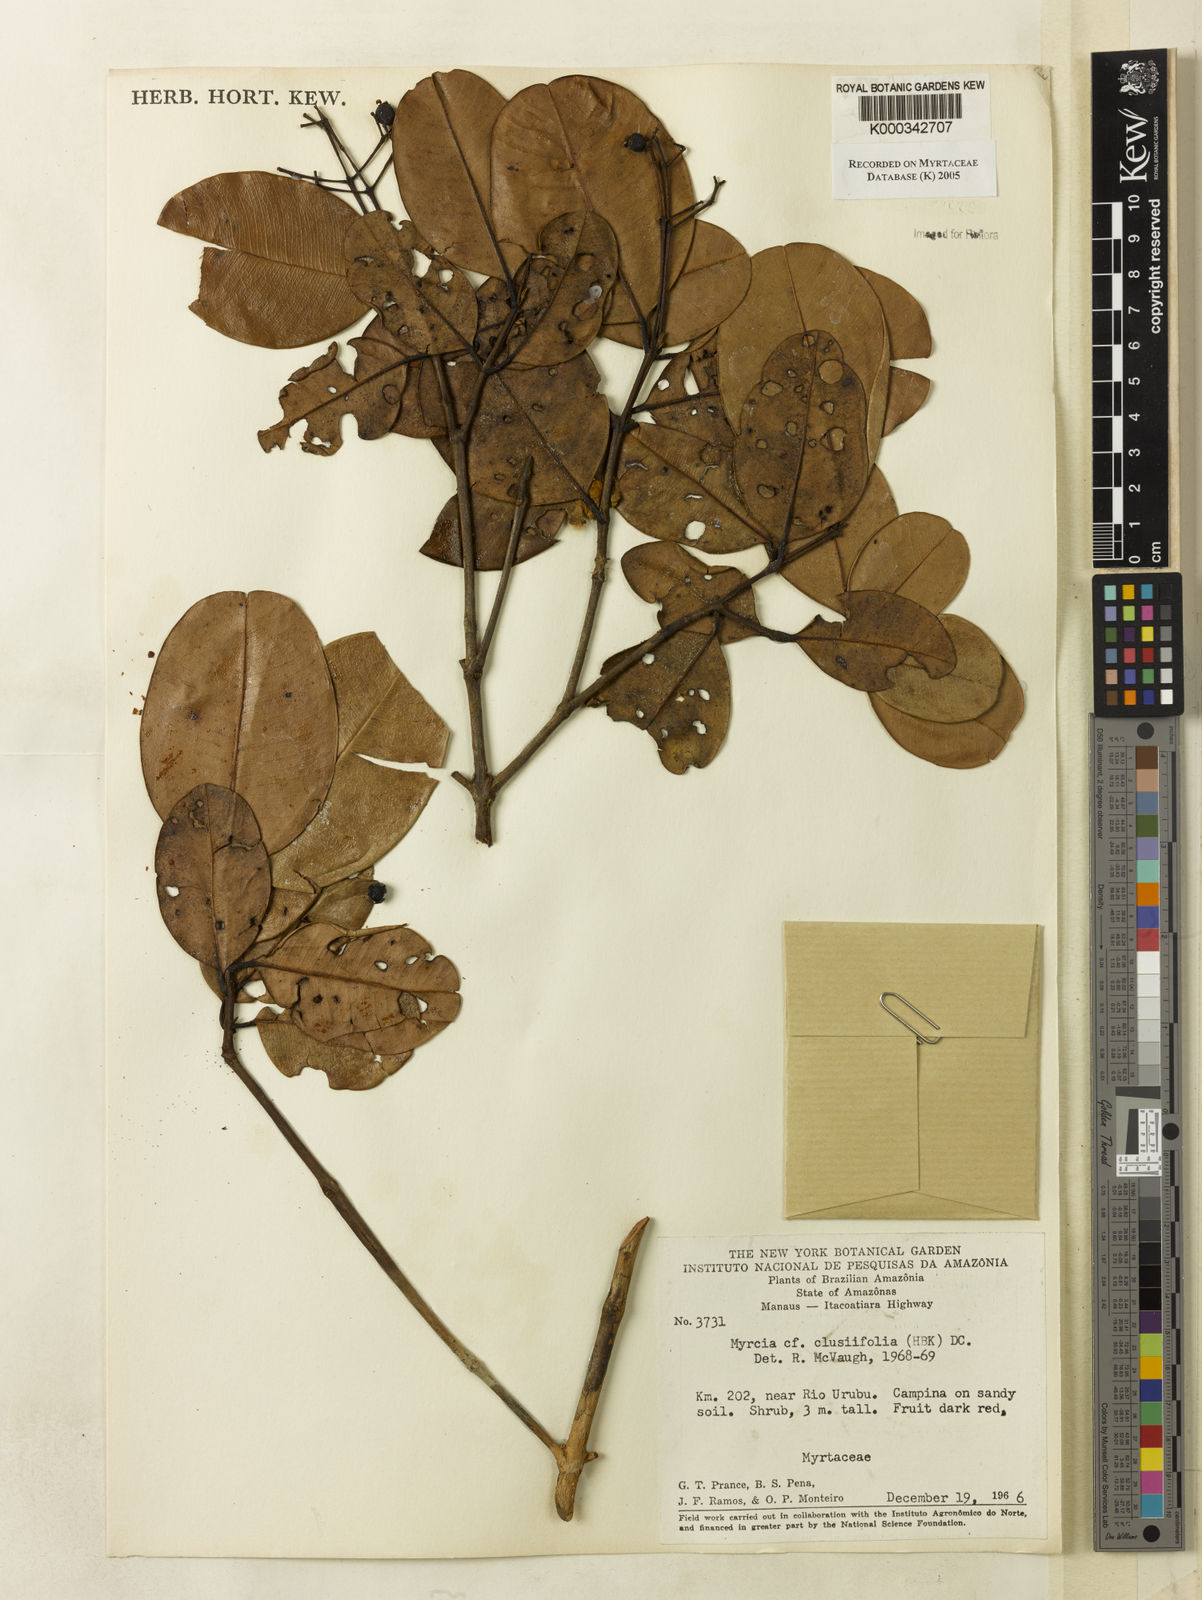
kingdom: Plantae
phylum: Tracheophyta
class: Magnoliopsida
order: Myrtales
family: Myrtaceae
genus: Myrcia
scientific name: Myrcia clusiifolia
